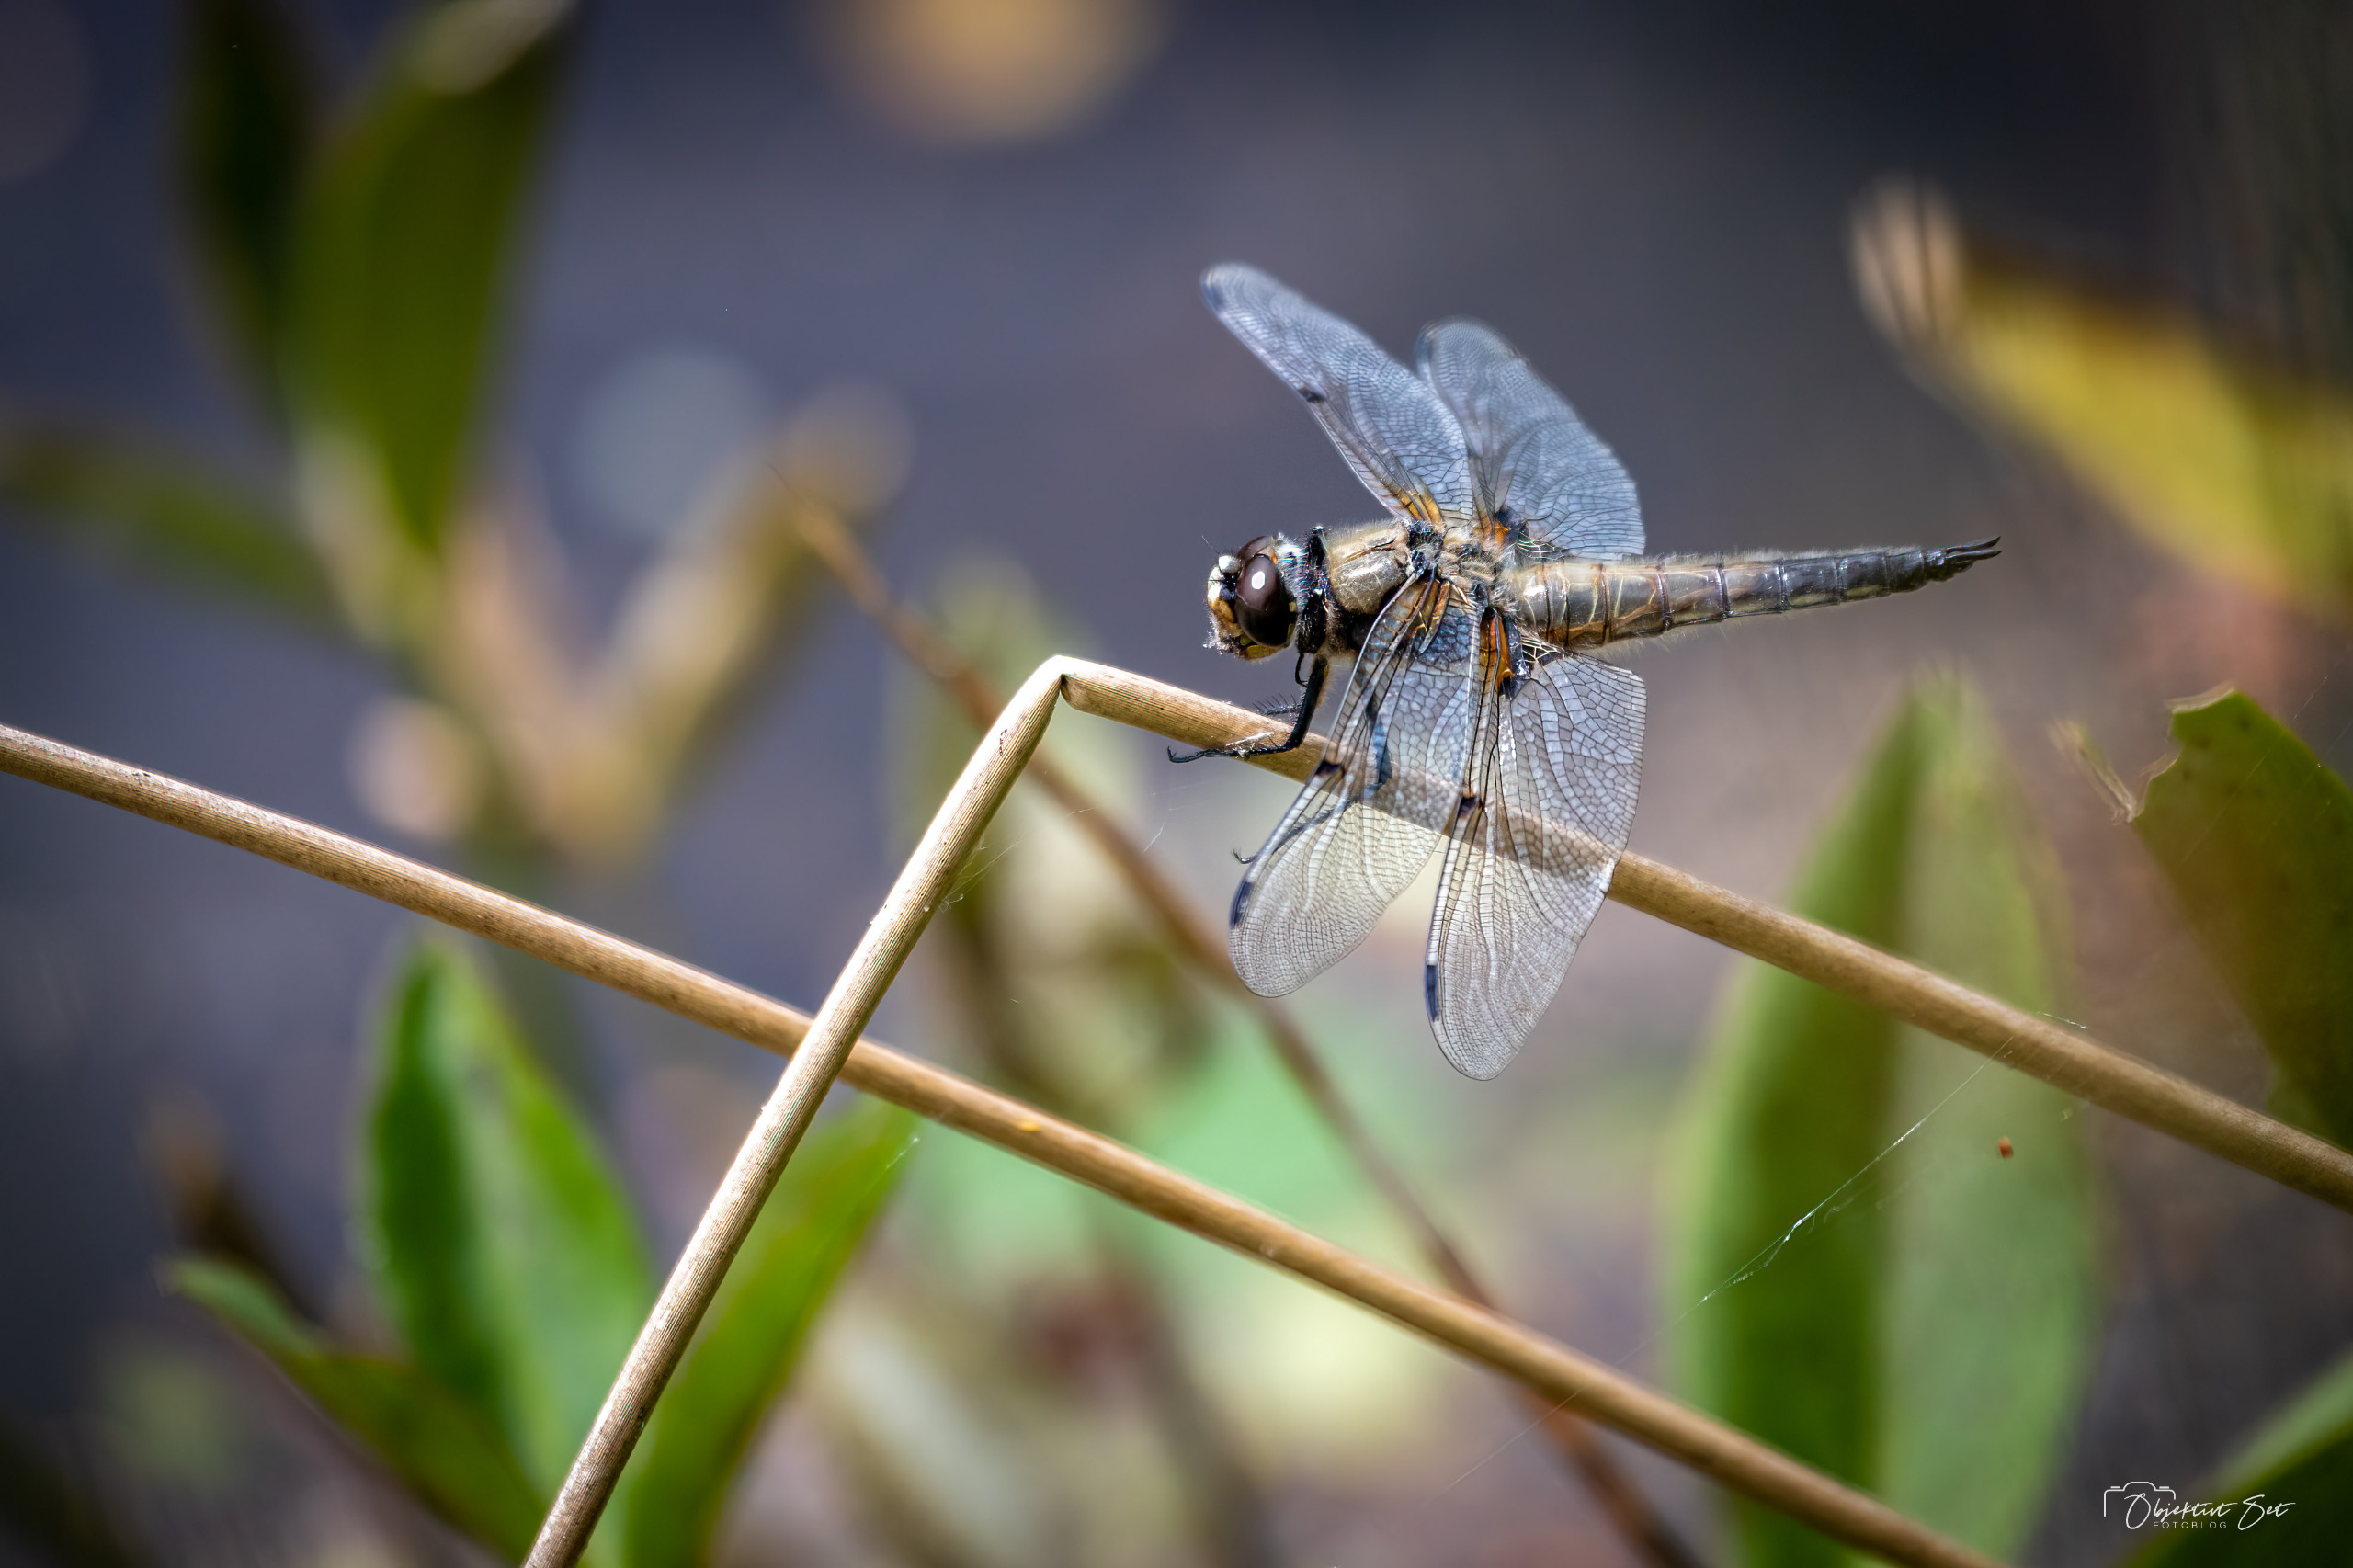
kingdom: Animalia
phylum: Arthropoda
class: Insecta
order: Odonata
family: Libellulidae
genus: Libellula
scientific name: Libellula quadrimaculata
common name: Fireplettet libel
